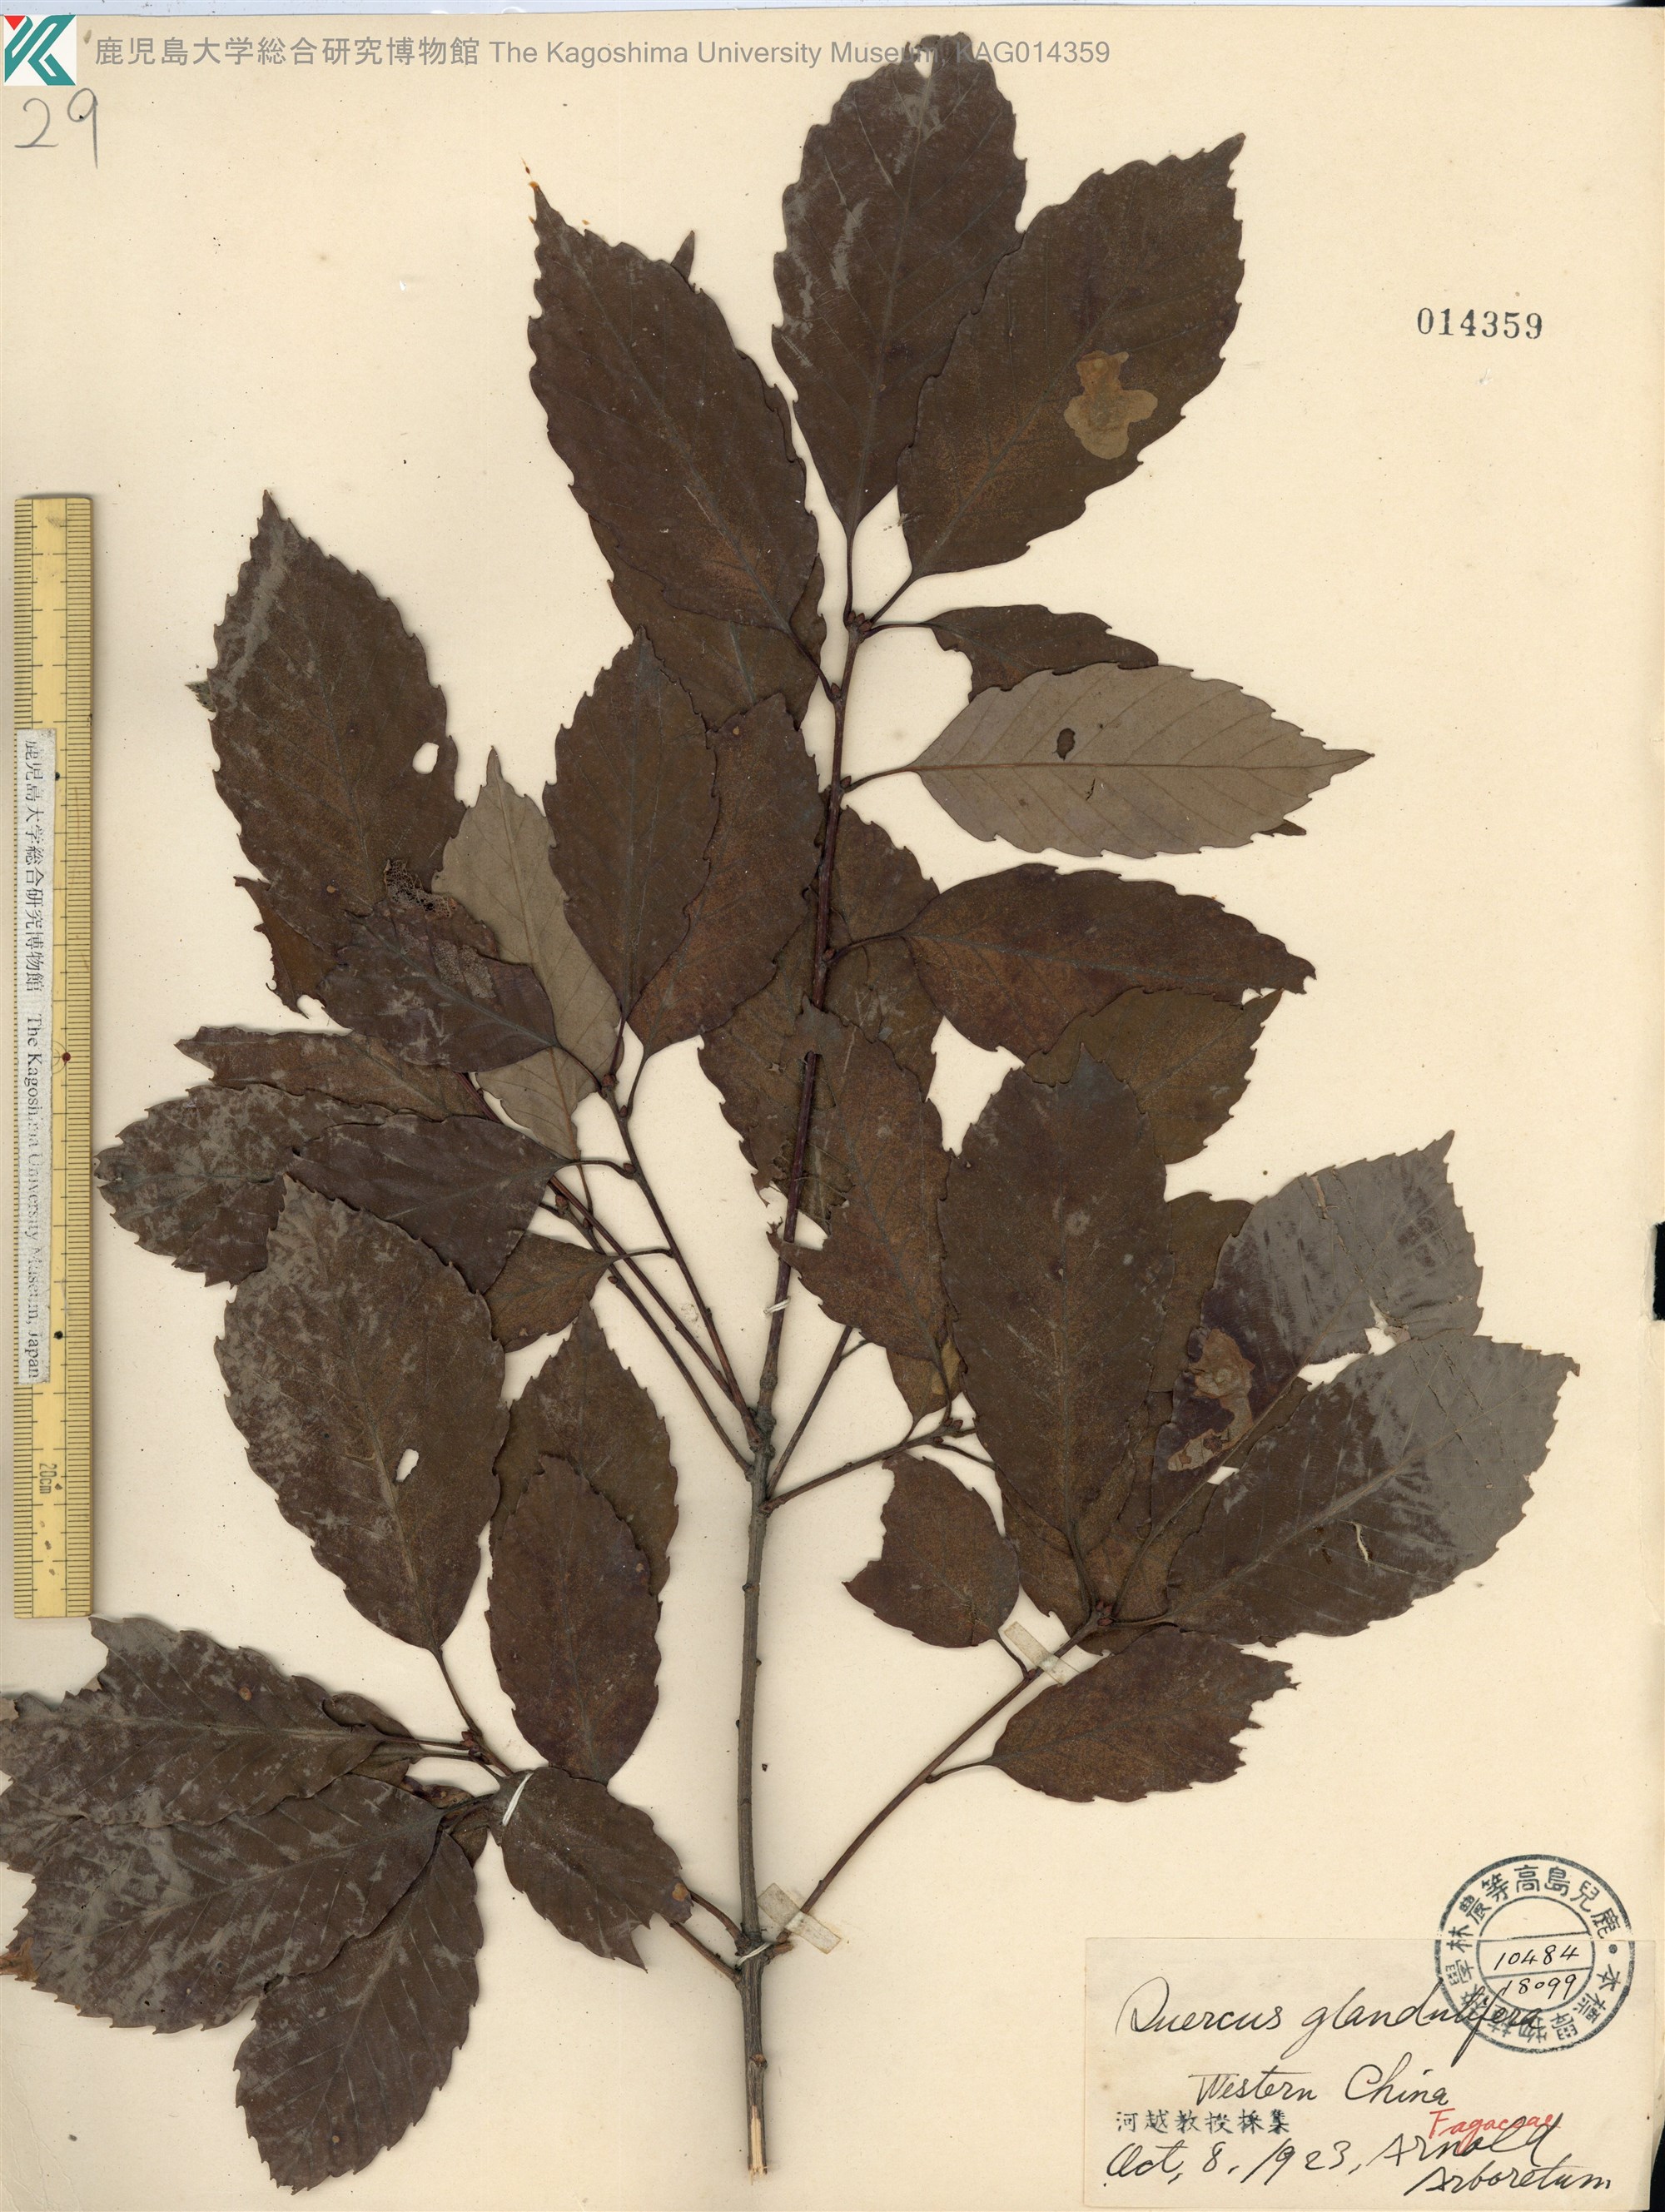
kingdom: Plantae
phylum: Tracheophyta
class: Magnoliopsida
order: Fagales
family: Fagaceae
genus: Quercus
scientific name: Quercus serrata
